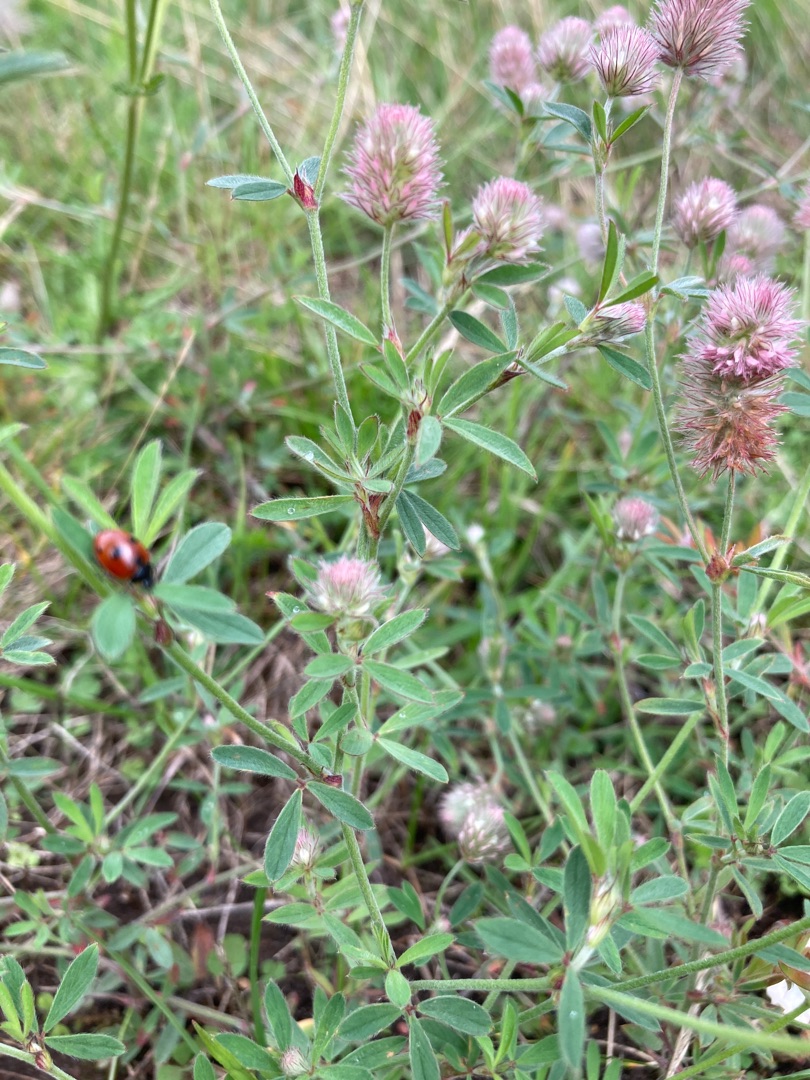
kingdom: Plantae
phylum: Tracheophyta
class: Magnoliopsida
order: Fabales
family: Fabaceae
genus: Trifolium
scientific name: Trifolium arvense
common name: Hare-kløver
